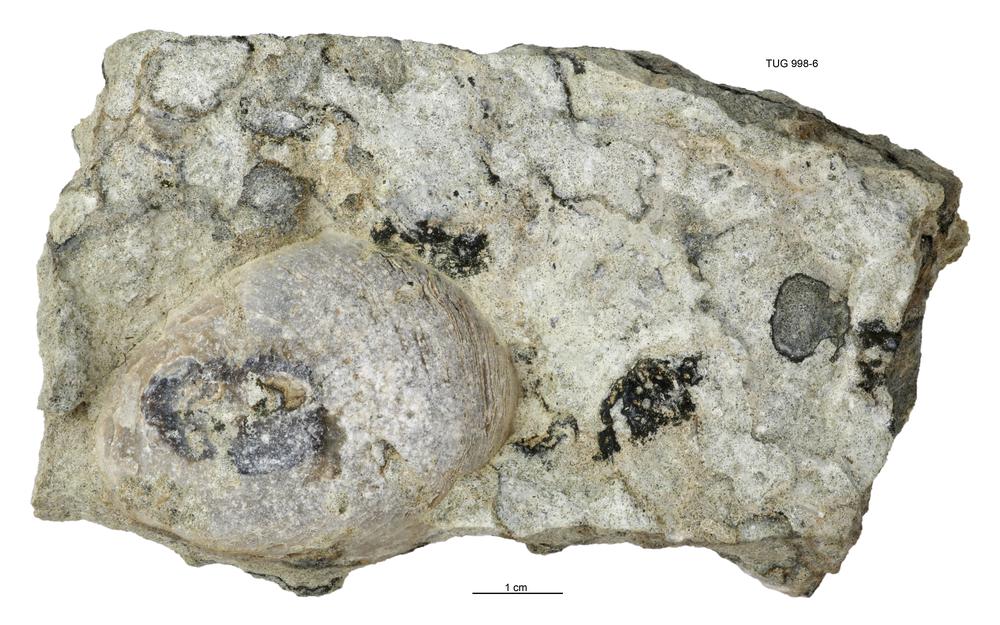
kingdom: Animalia
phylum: Brachiopoda
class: Lingulata
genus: Pseudometoptoma
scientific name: Pseudometoptoma
